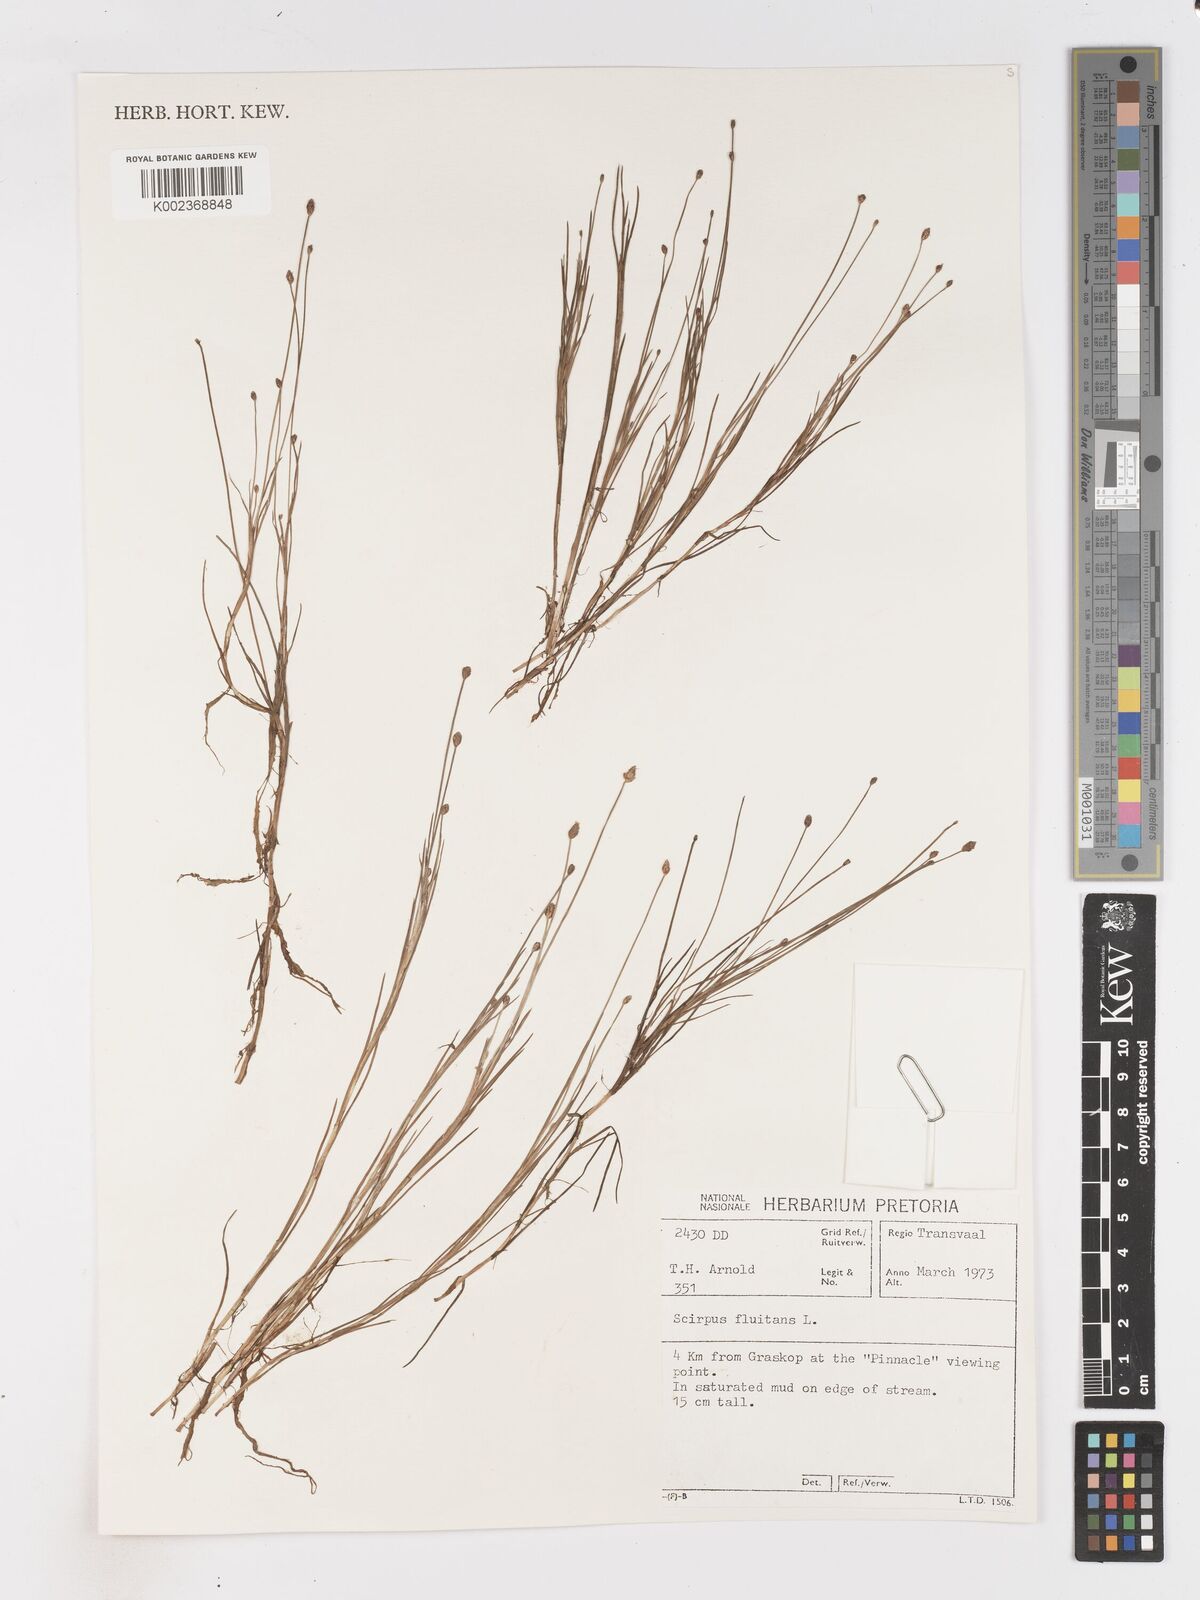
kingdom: Plantae
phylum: Tracheophyta
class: Liliopsida
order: Poales
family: Cyperaceae
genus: Isolepis
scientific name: Isolepis fluitans
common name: Floating club-rush
